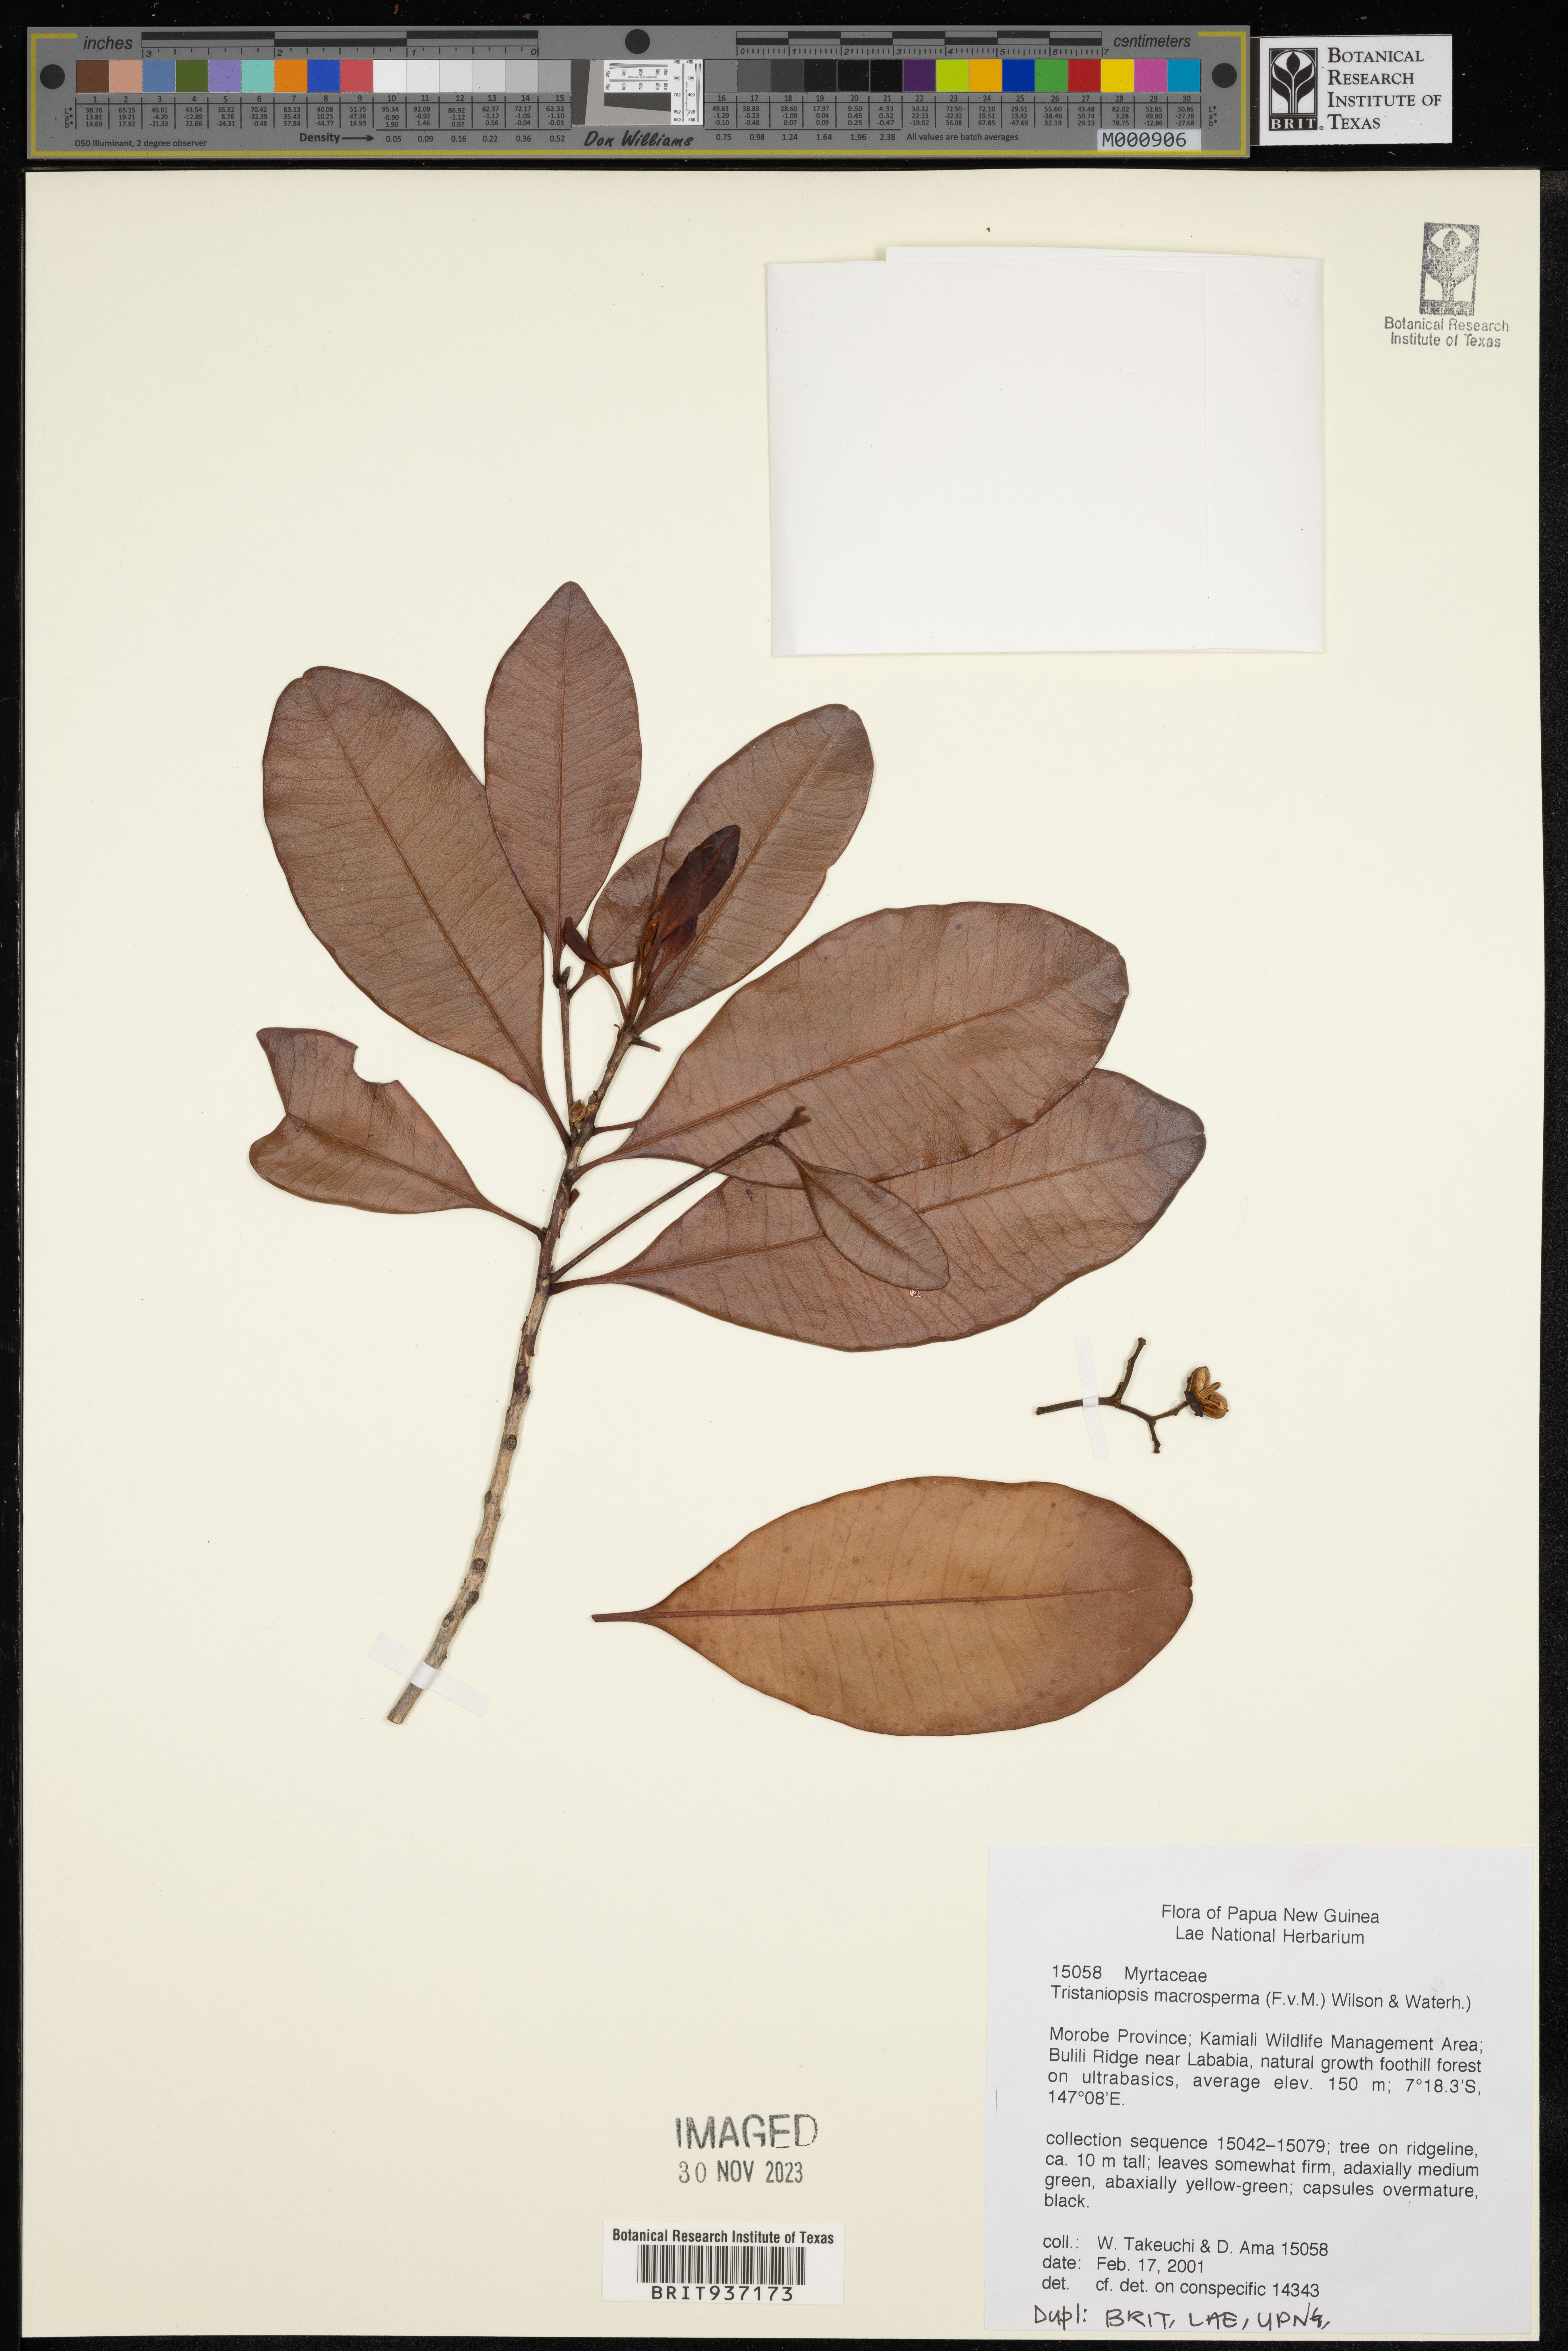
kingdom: Plantae
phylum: Tracheophyta
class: Magnoliopsida
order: Myrtales
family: Myrtaceae
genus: Tristaniopsis
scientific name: Tristaniopsis
